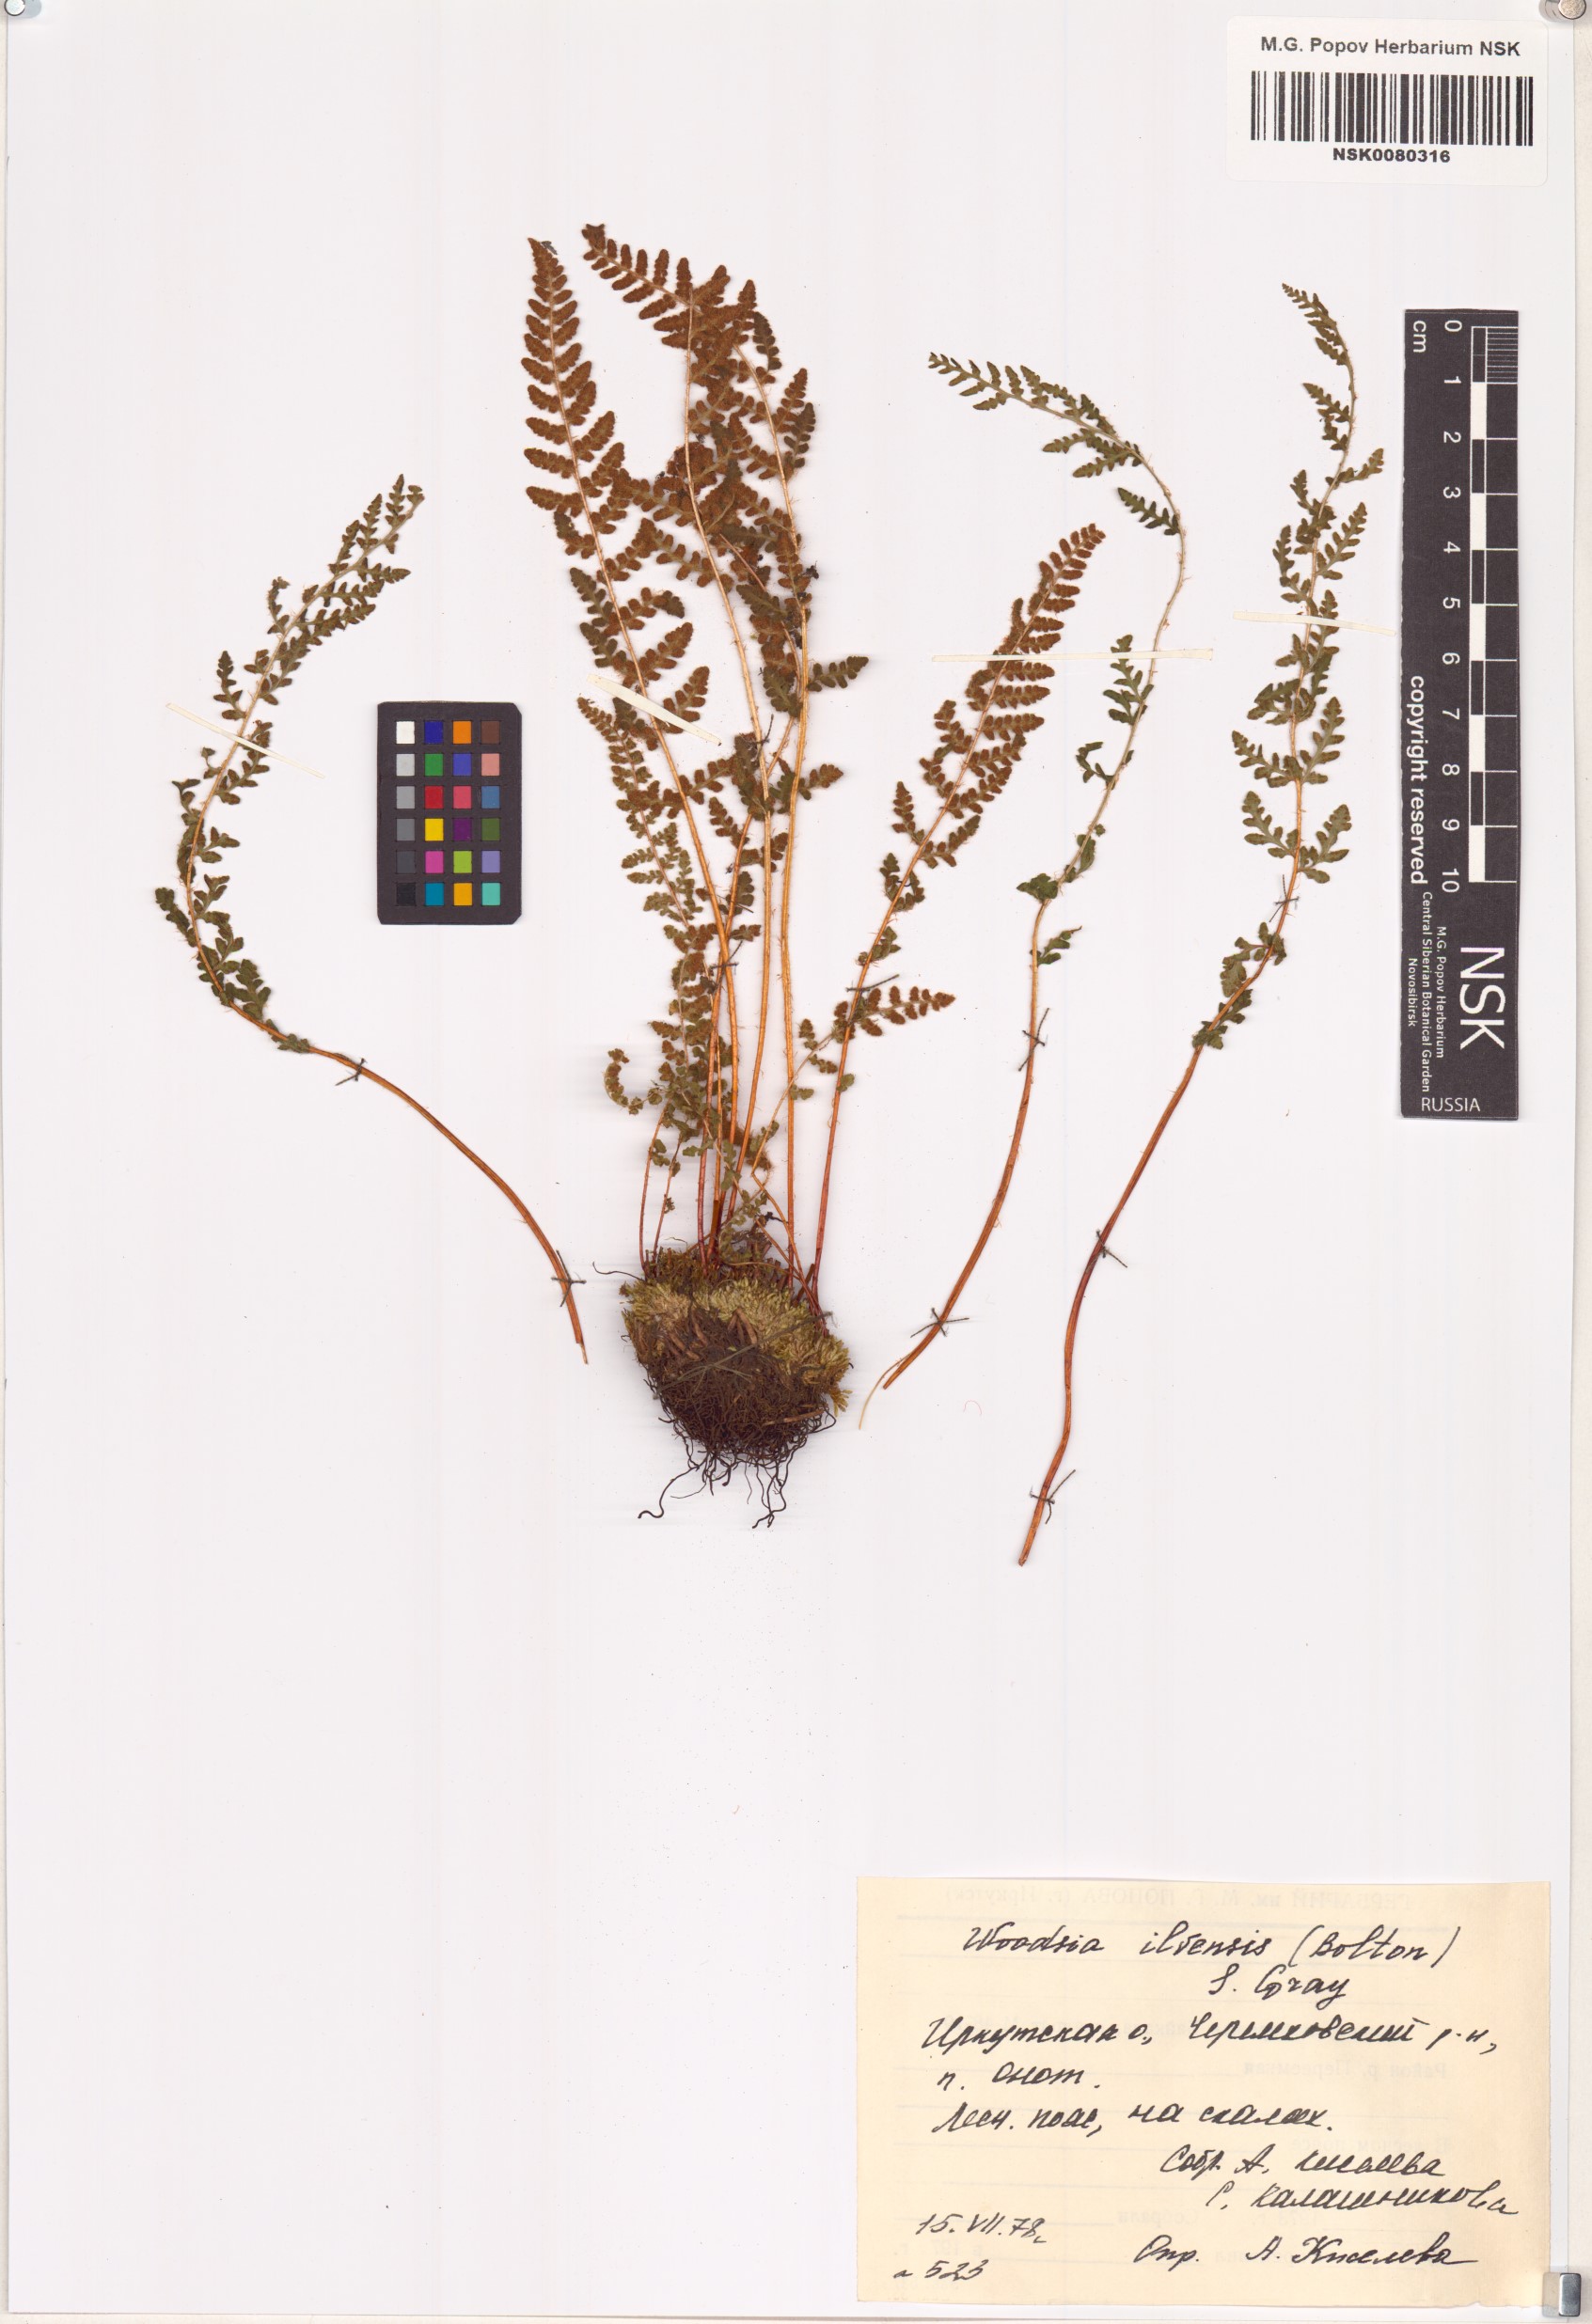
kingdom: Plantae
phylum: Tracheophyta
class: Polypodiopsida
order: Polypodiales
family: Woodsiaceae
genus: Woodsia
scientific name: Woodsia ilvensis
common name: Fragrant woodsia
